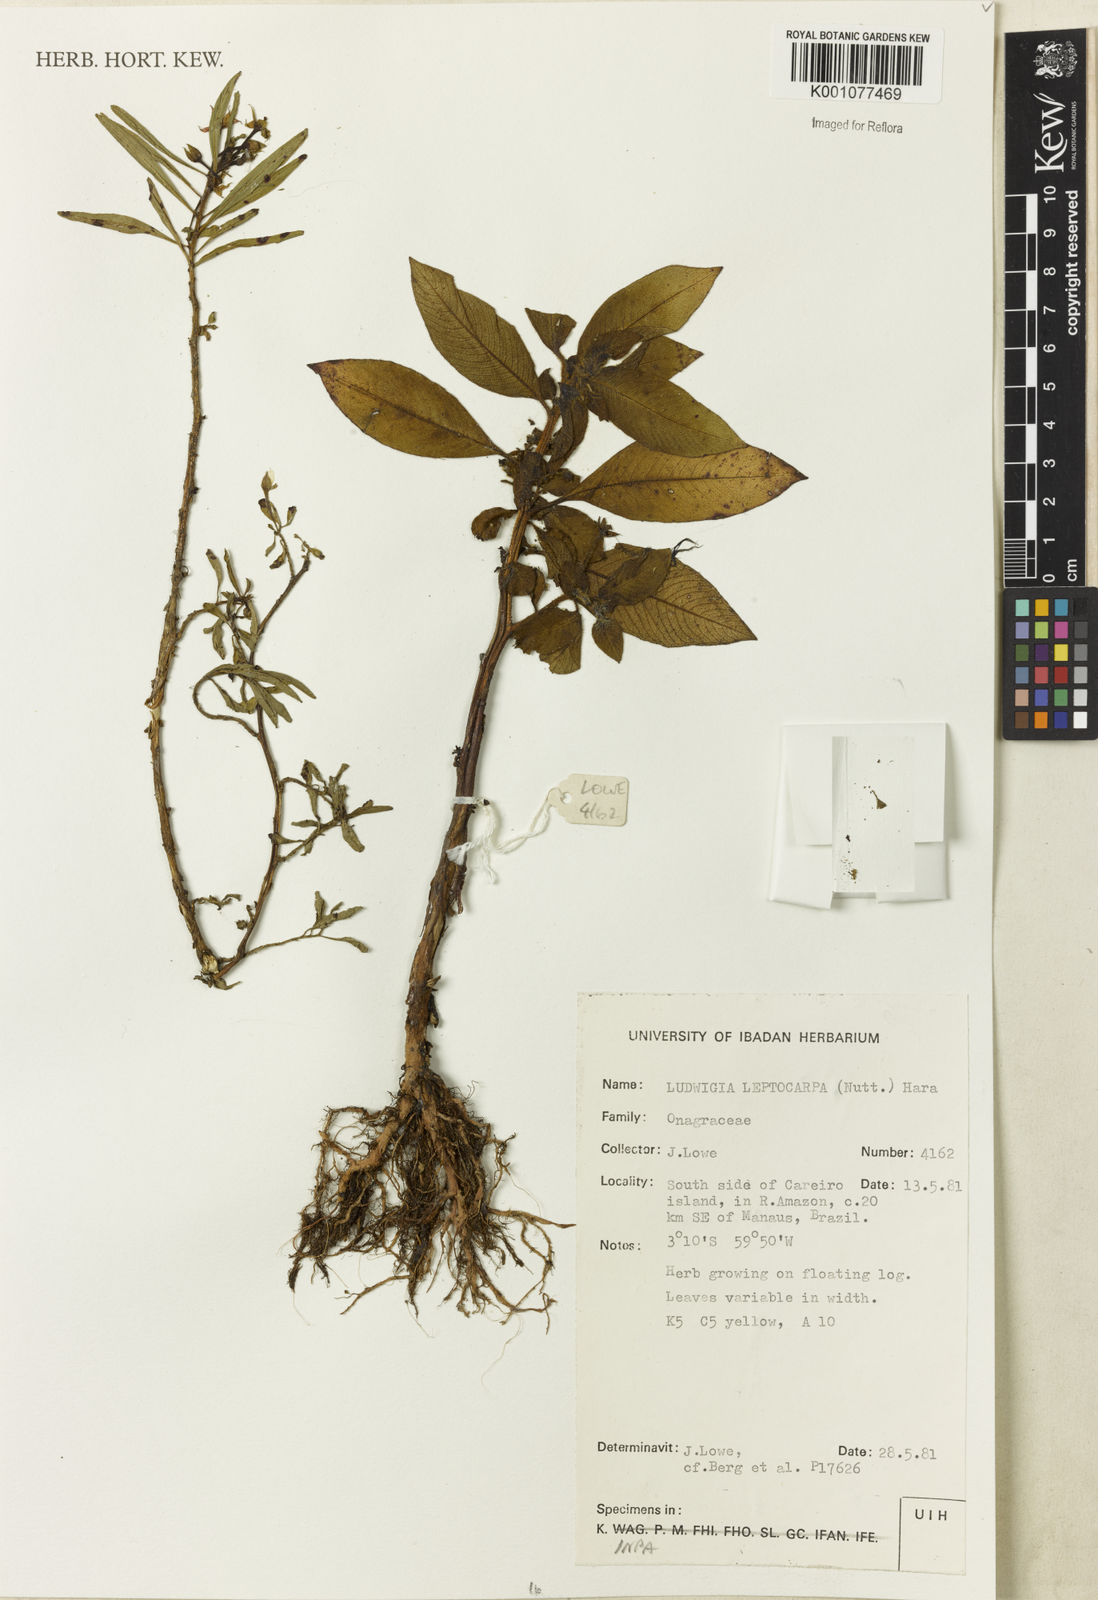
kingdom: Plantae
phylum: Tracheophyta
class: Magnoliopsida
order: Myrtales
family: Onagraceae
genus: Ludwigia
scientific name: Ludwigia leptocarpa
